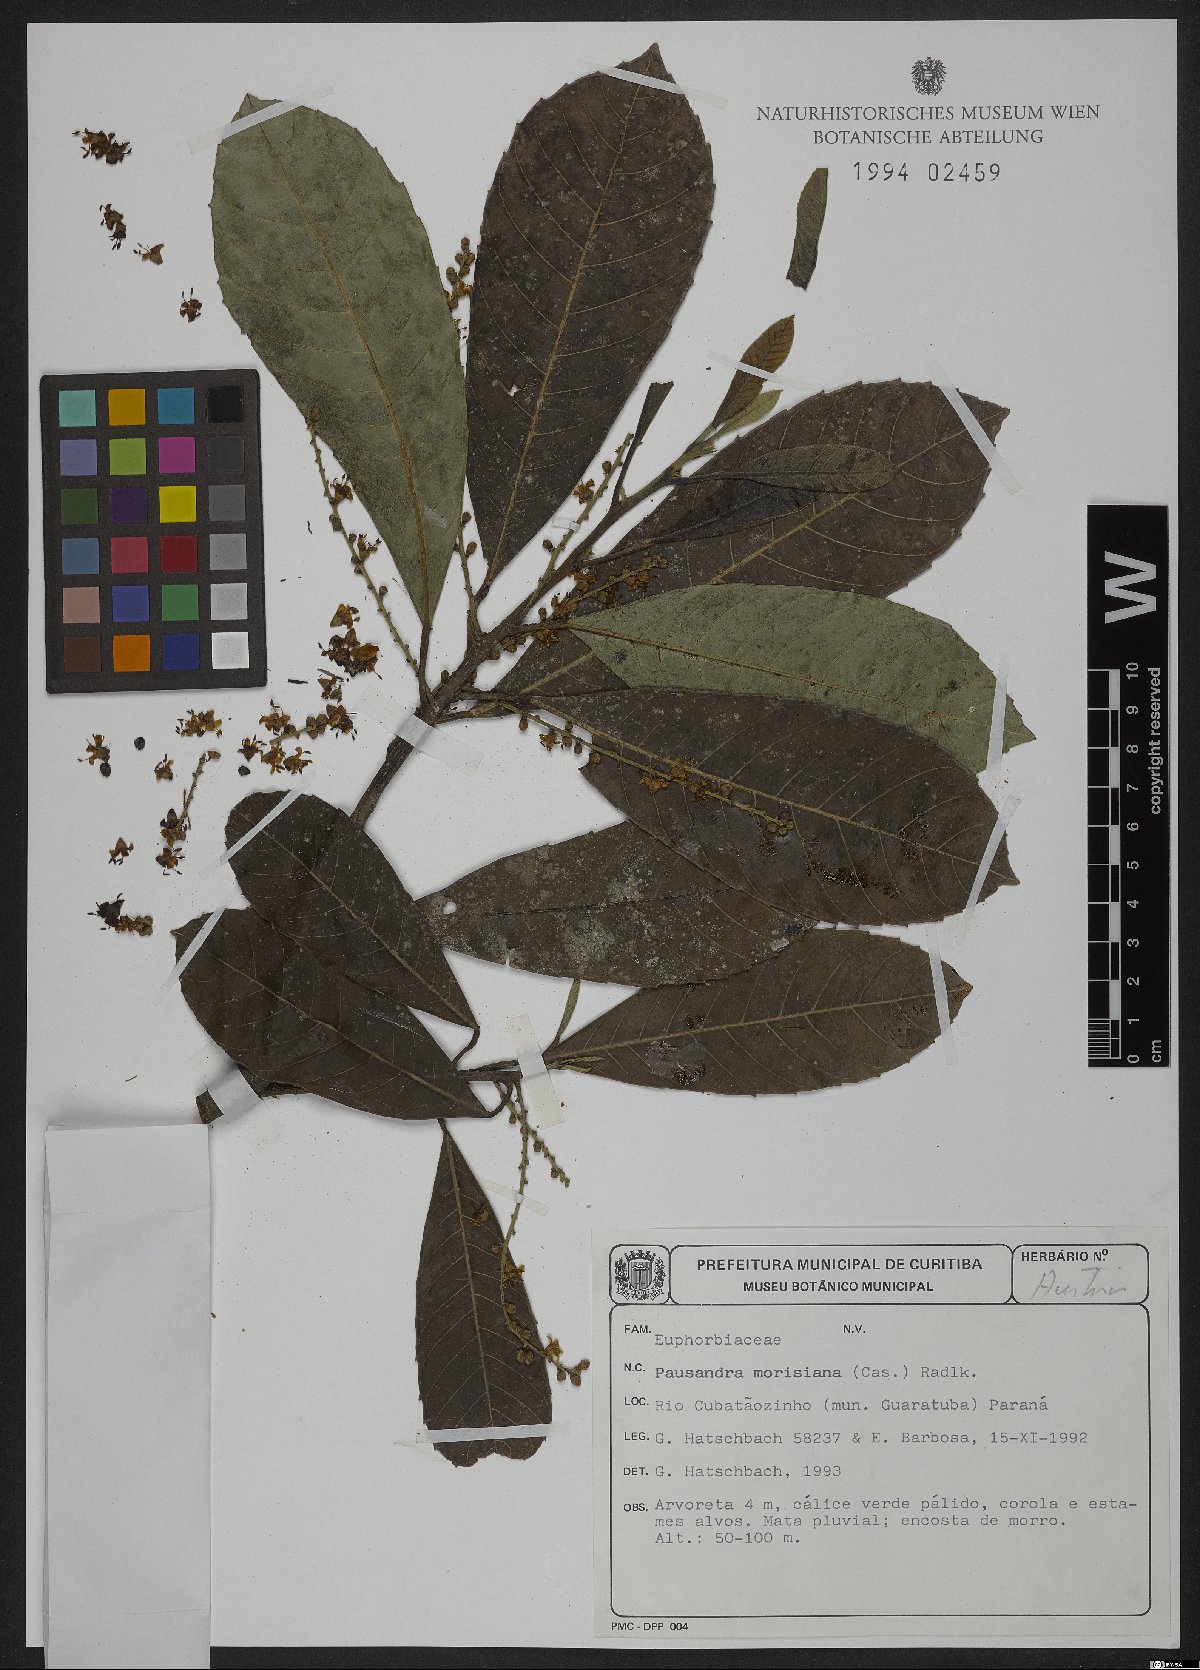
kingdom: Plantae
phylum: Tracheophyta
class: Magnoliopsida
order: Malpighiales
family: Euphorbiaceae
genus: Pausandra
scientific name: Pausandra morisiana
